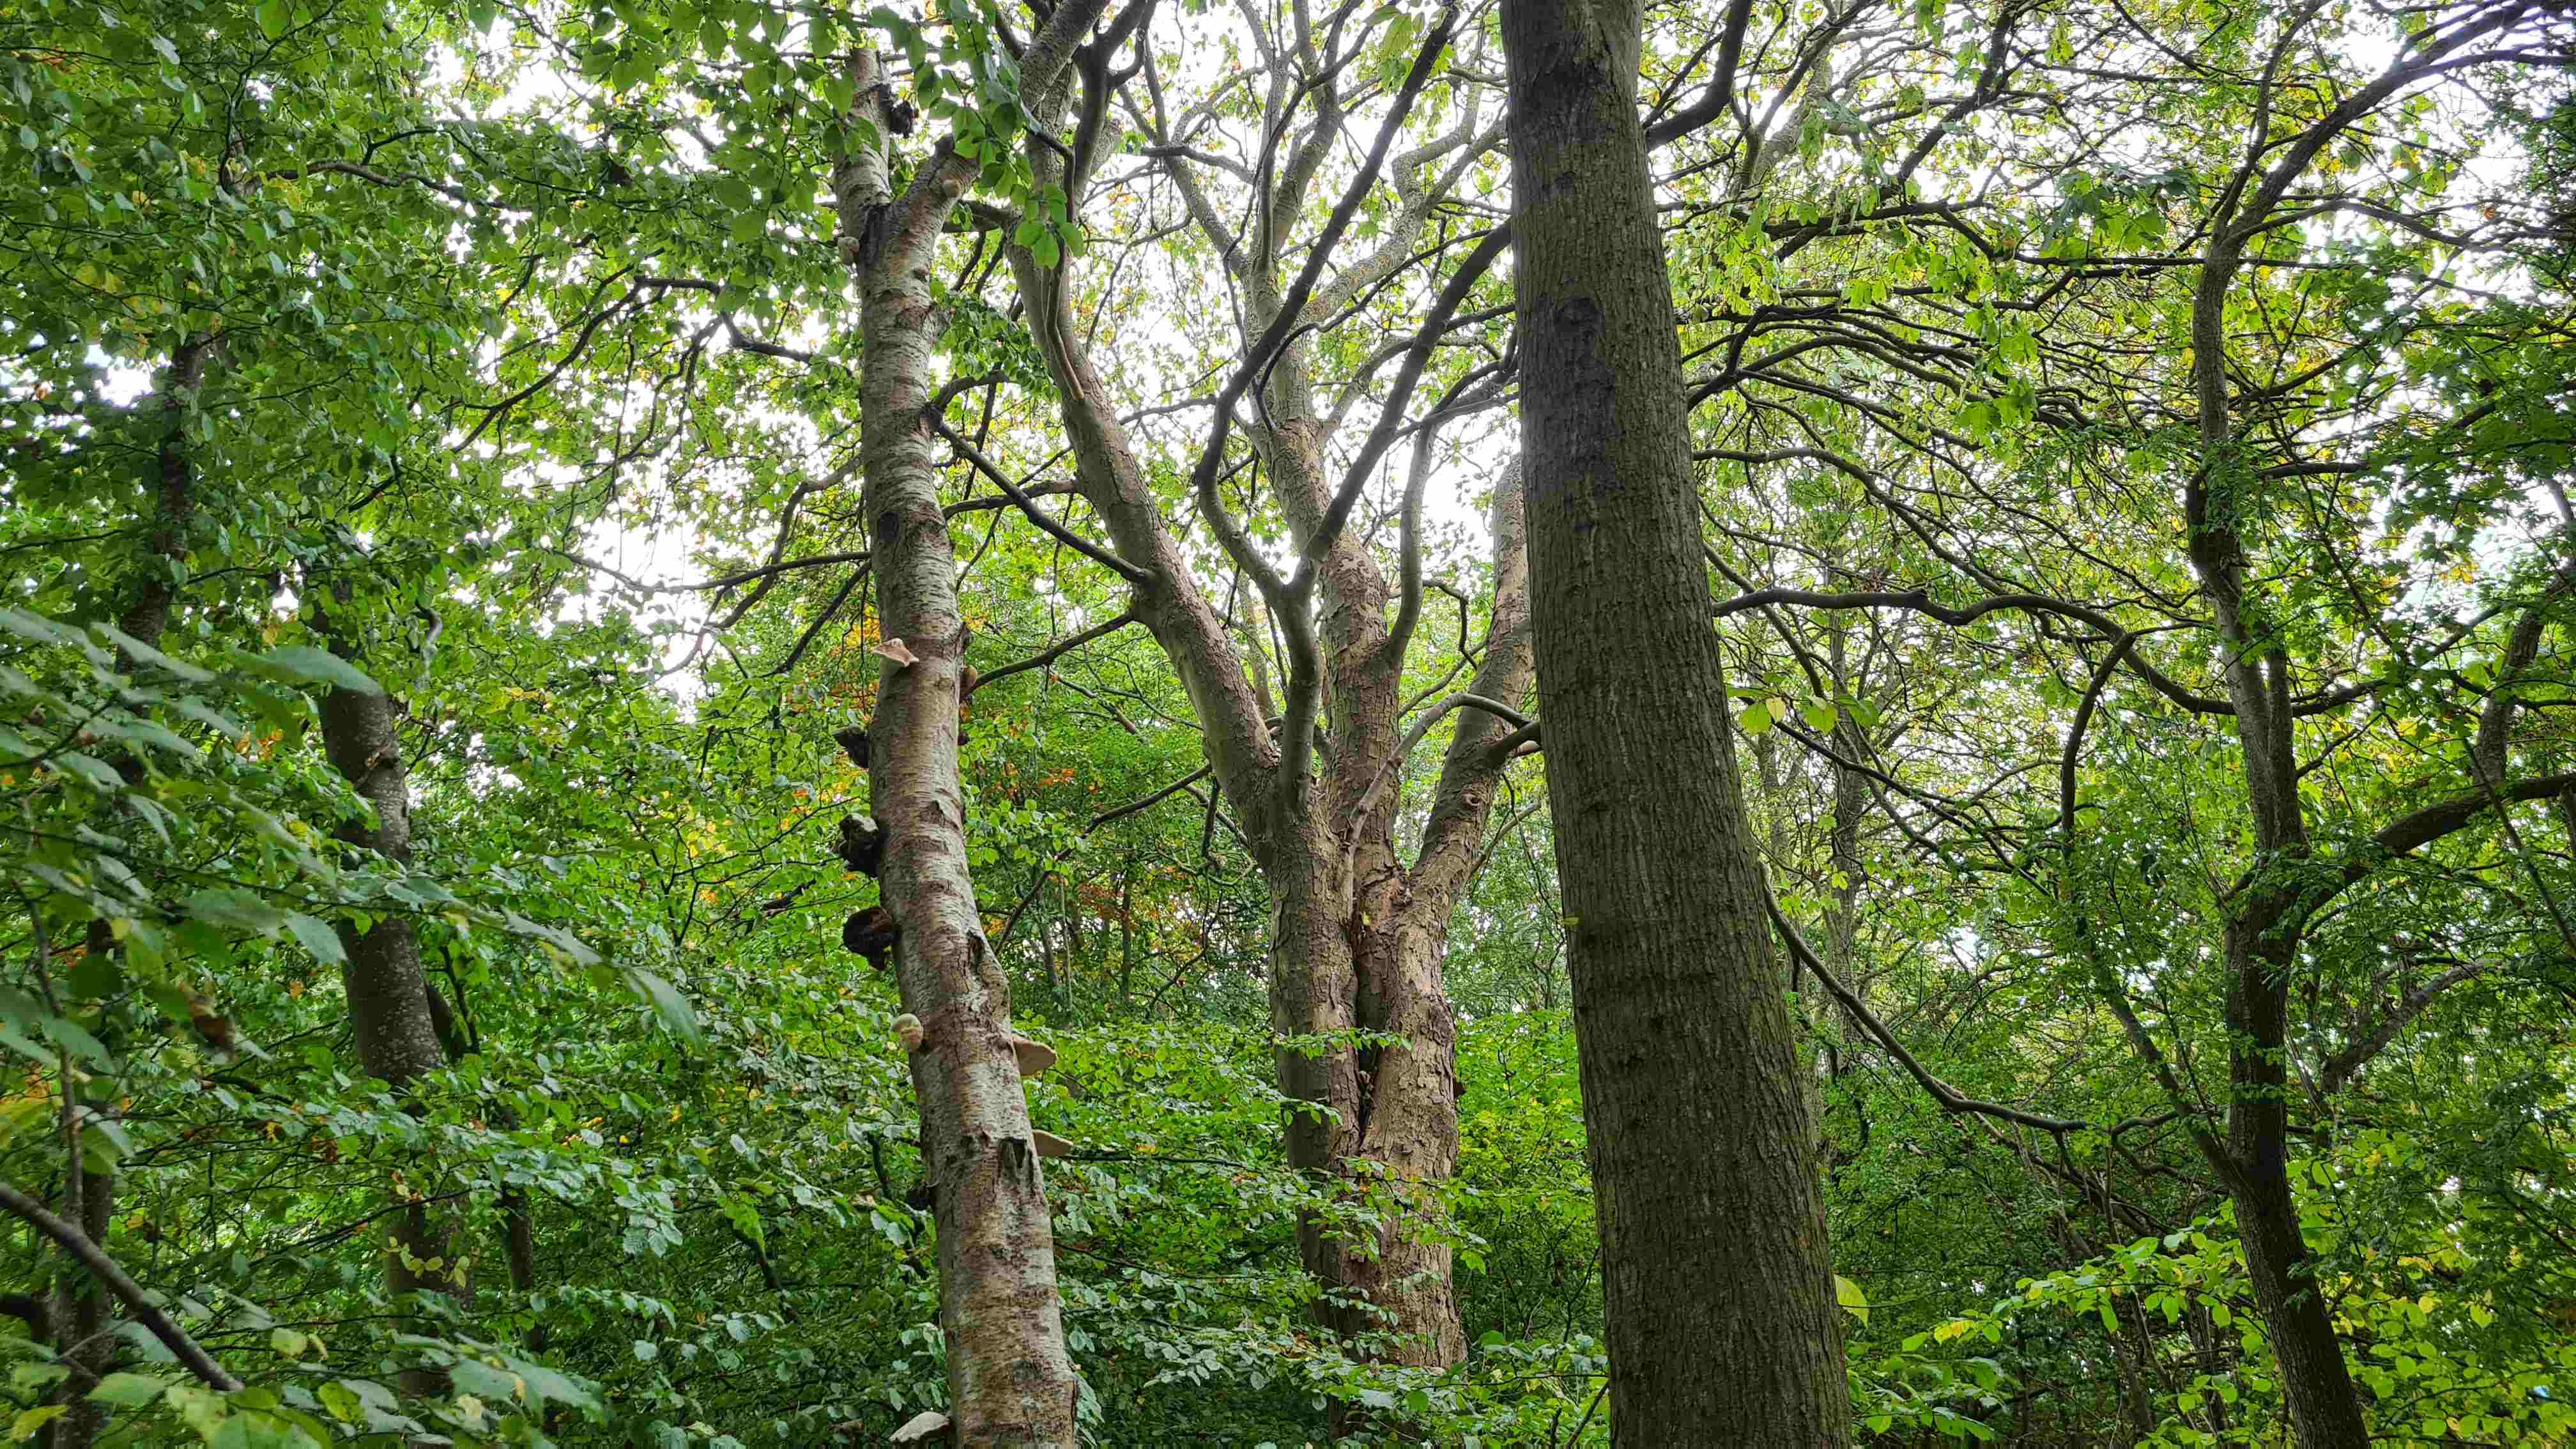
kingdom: Fungi
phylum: Basidiomycota
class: Agaricomycetes
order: Polyporales
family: Fomitopsidaceae
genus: Fomitopsis
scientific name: Fomitopsis betulina
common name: birkeporesvamp
